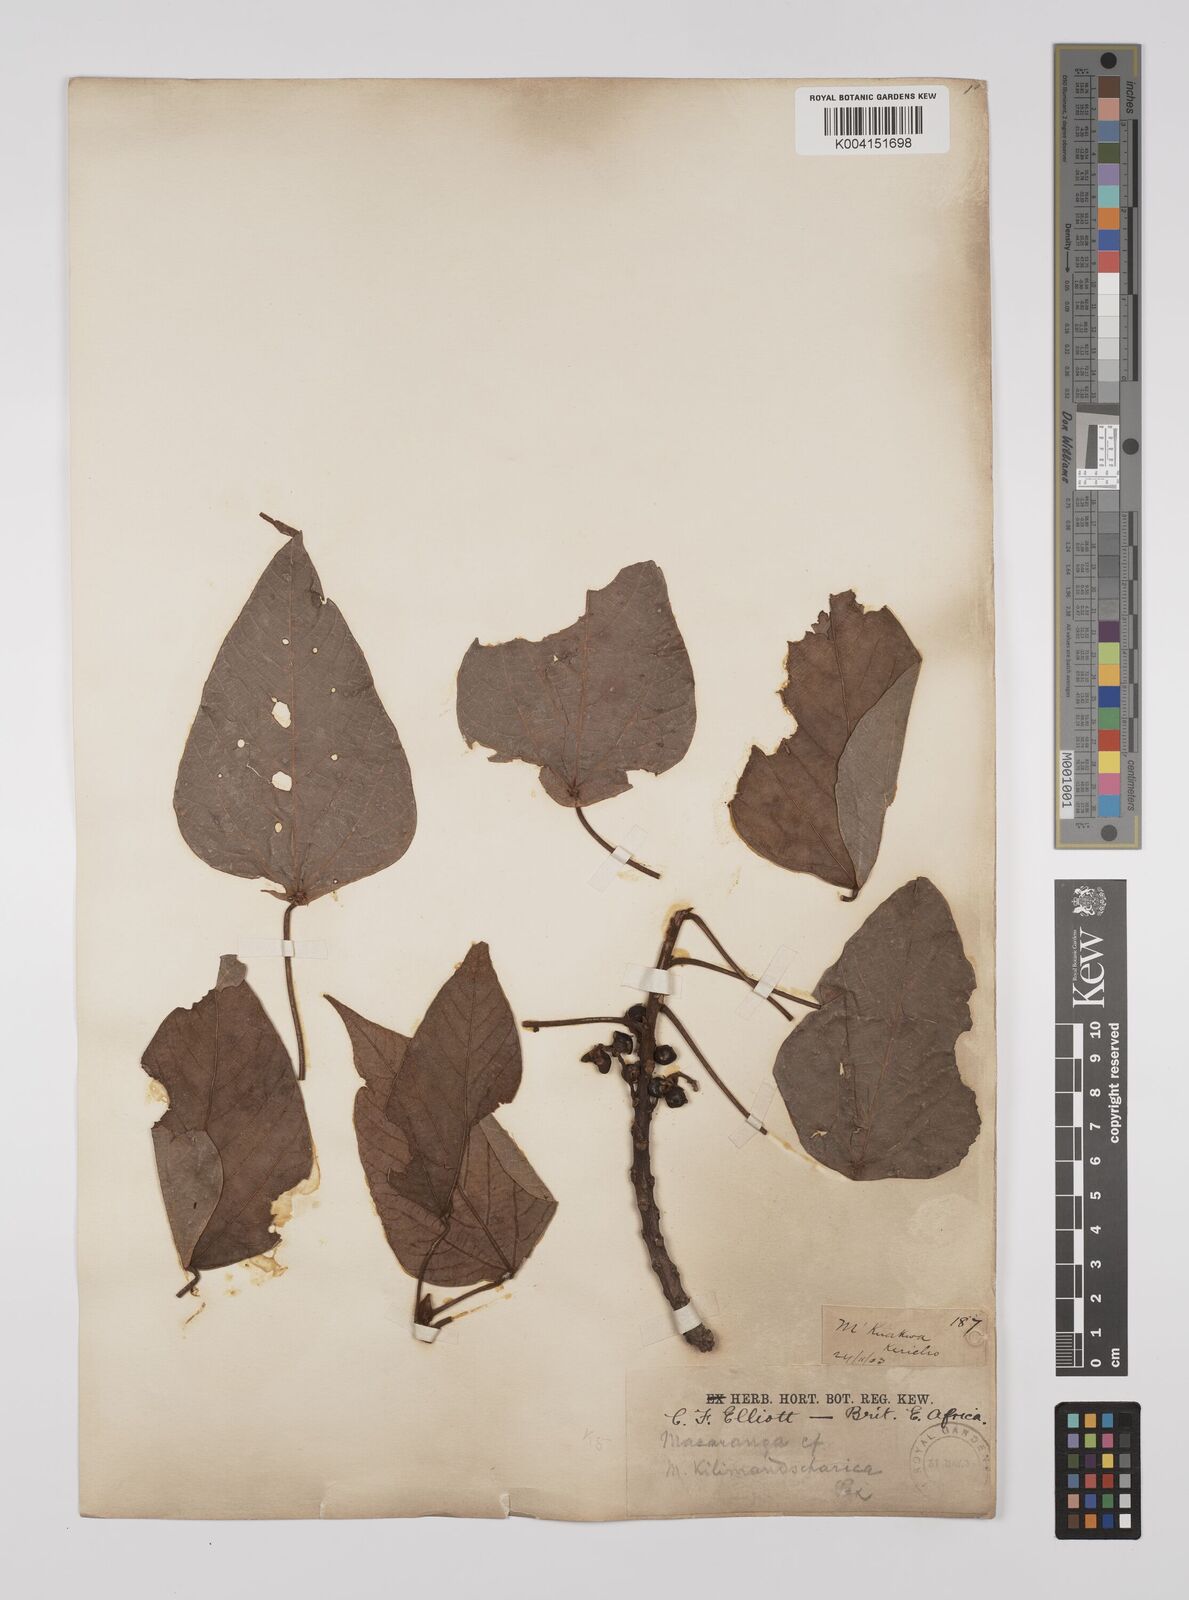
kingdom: Plantae
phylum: Tracheophyta
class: Magnoliopsida
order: Malpighiales
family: Euphorbiaceae
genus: Macaranga
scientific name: Macaranga kilimandscharica
